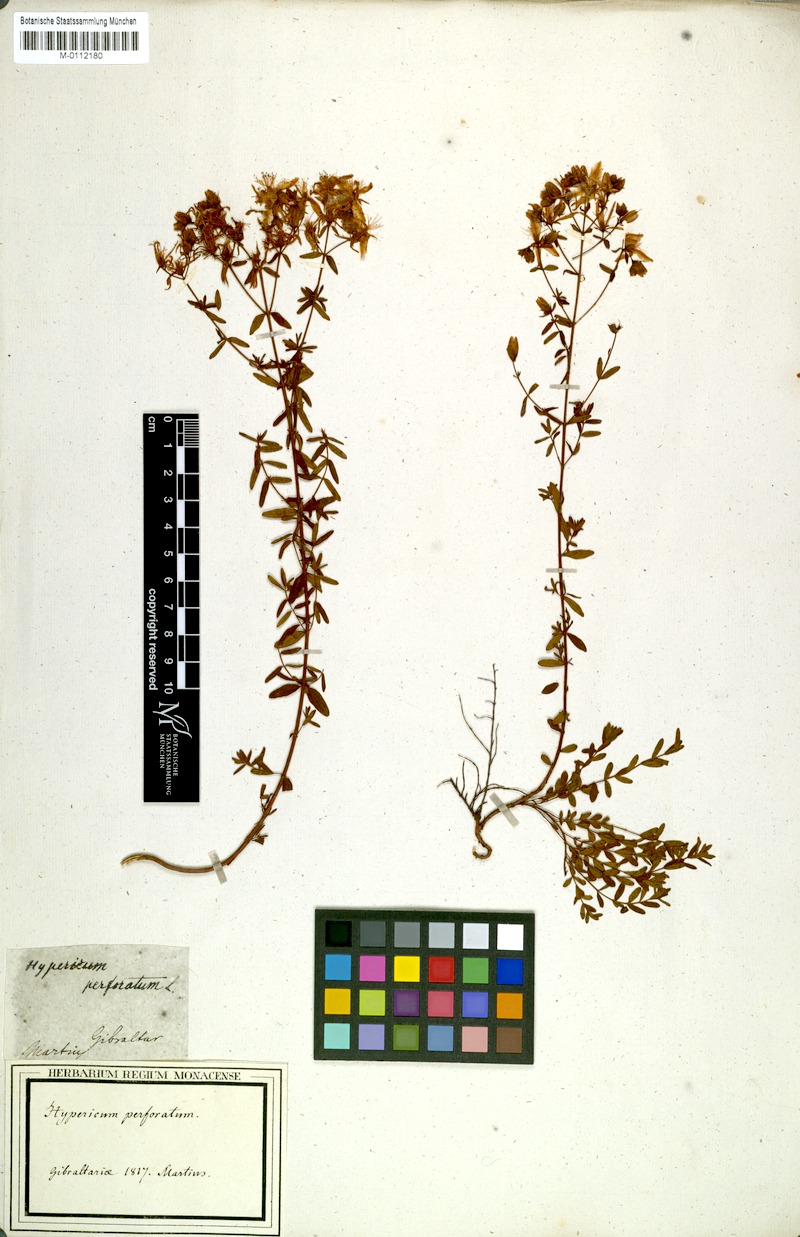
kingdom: Plantae
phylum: Tracheophyta
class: Magnoliopsida
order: Malpighiales
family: Hypericaceae
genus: Hypericum
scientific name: Hypericum perforatum
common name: Common st. johnswort
